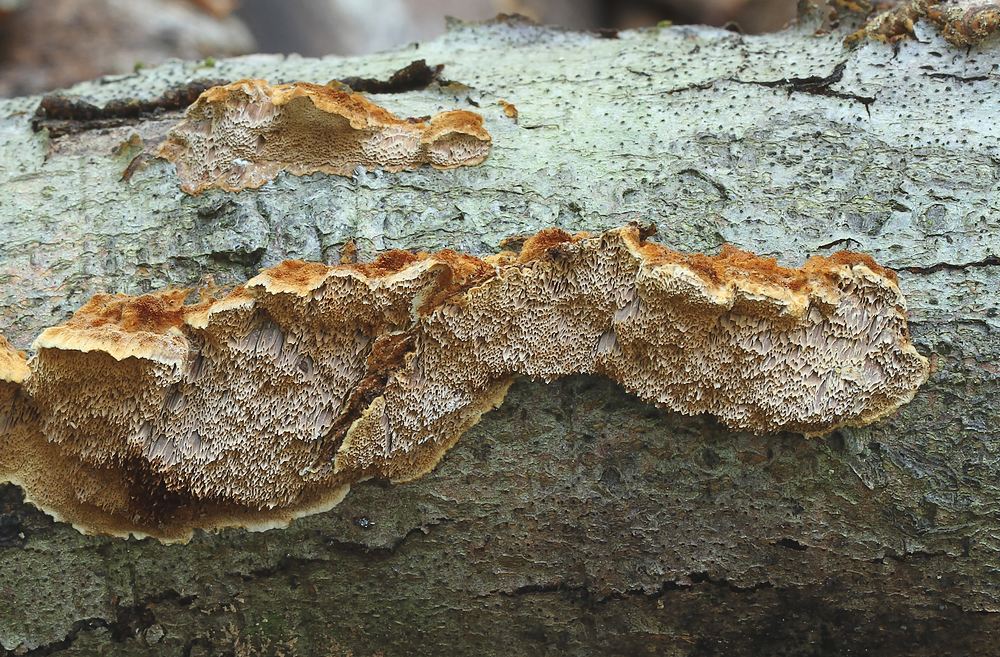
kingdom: Fungi
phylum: Basidiomycota
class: Agaricomycetes
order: Hymenochaetales
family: Hymenochaetaceae
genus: Mensularia
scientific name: Mensularia nodulosa
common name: bøge-spejlporesvamp
